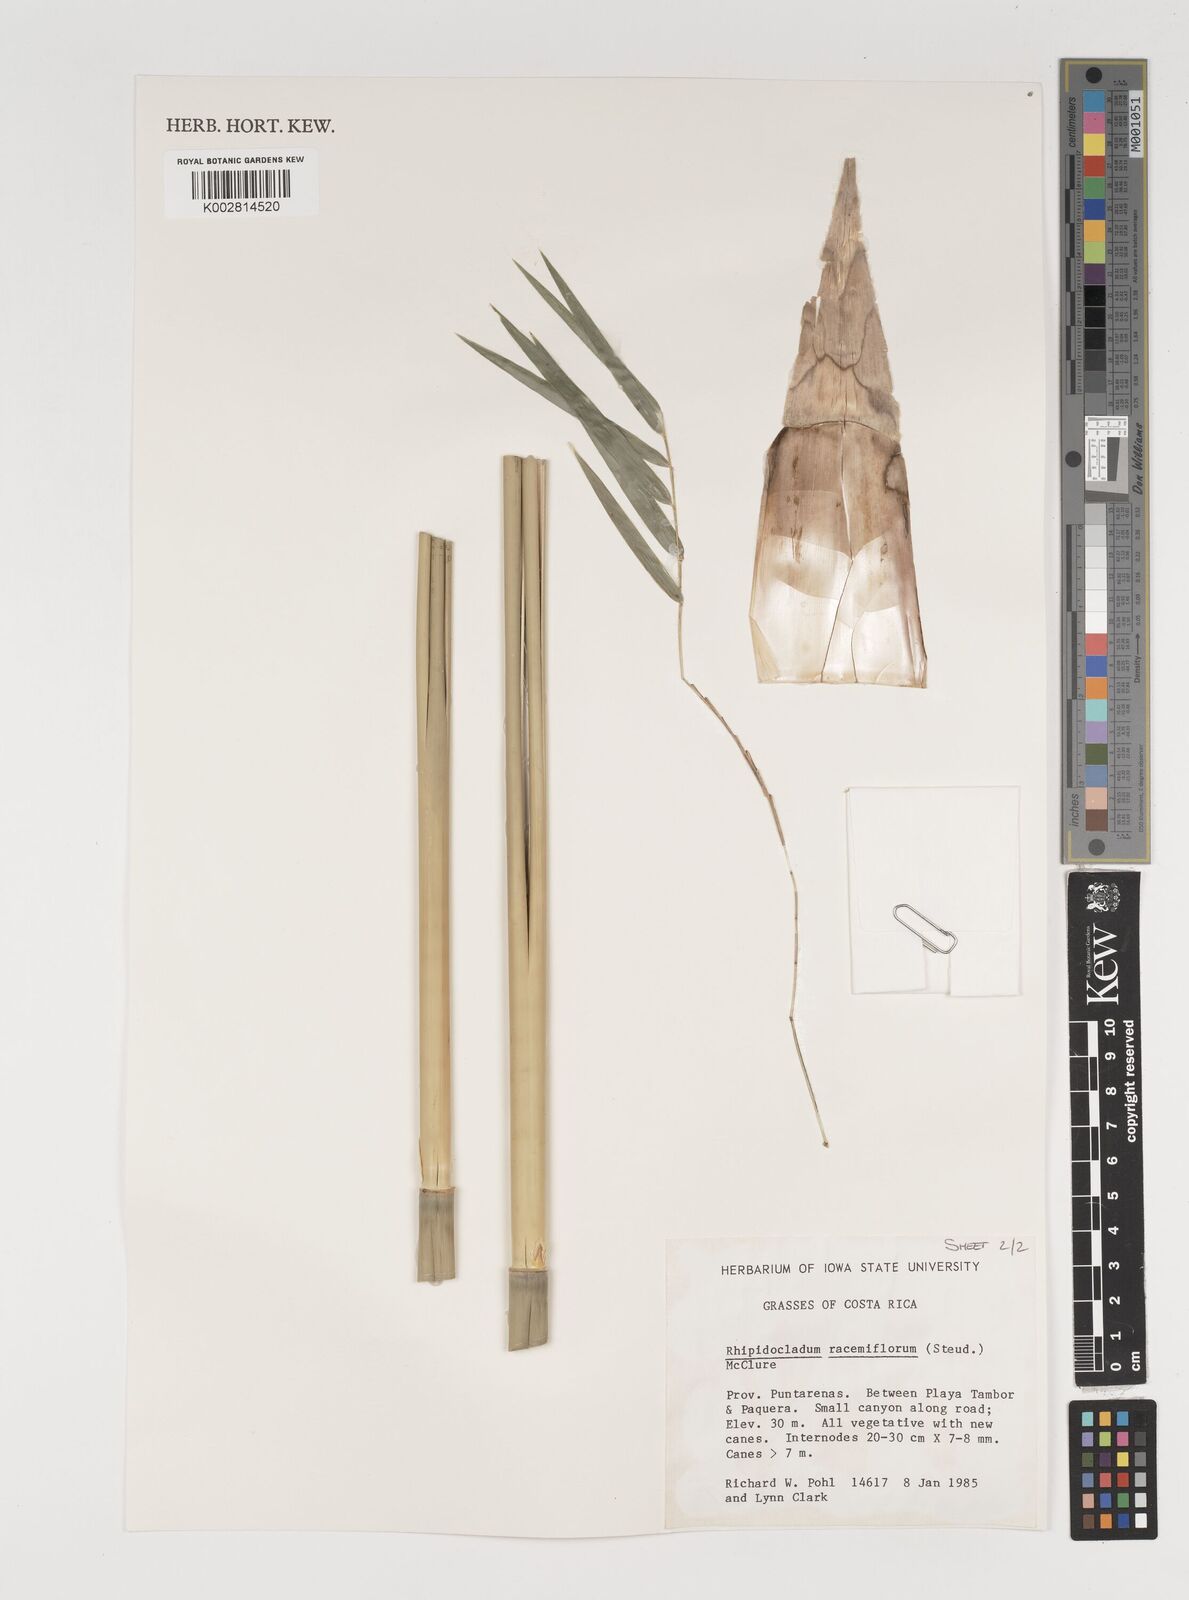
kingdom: Plantae
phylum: Tracheophyta
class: Liliopsida
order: Poales
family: Poaceae
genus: Rhipidocladum
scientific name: Rhipidocladum racemiflorum
